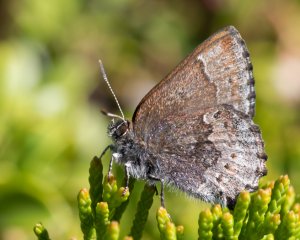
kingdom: Animalia
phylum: Arthropoda
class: Insecta
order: Lepidoptera
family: Lycaenidae
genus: Callophrys
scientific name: Callophrys polios
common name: Hoary Elfin
